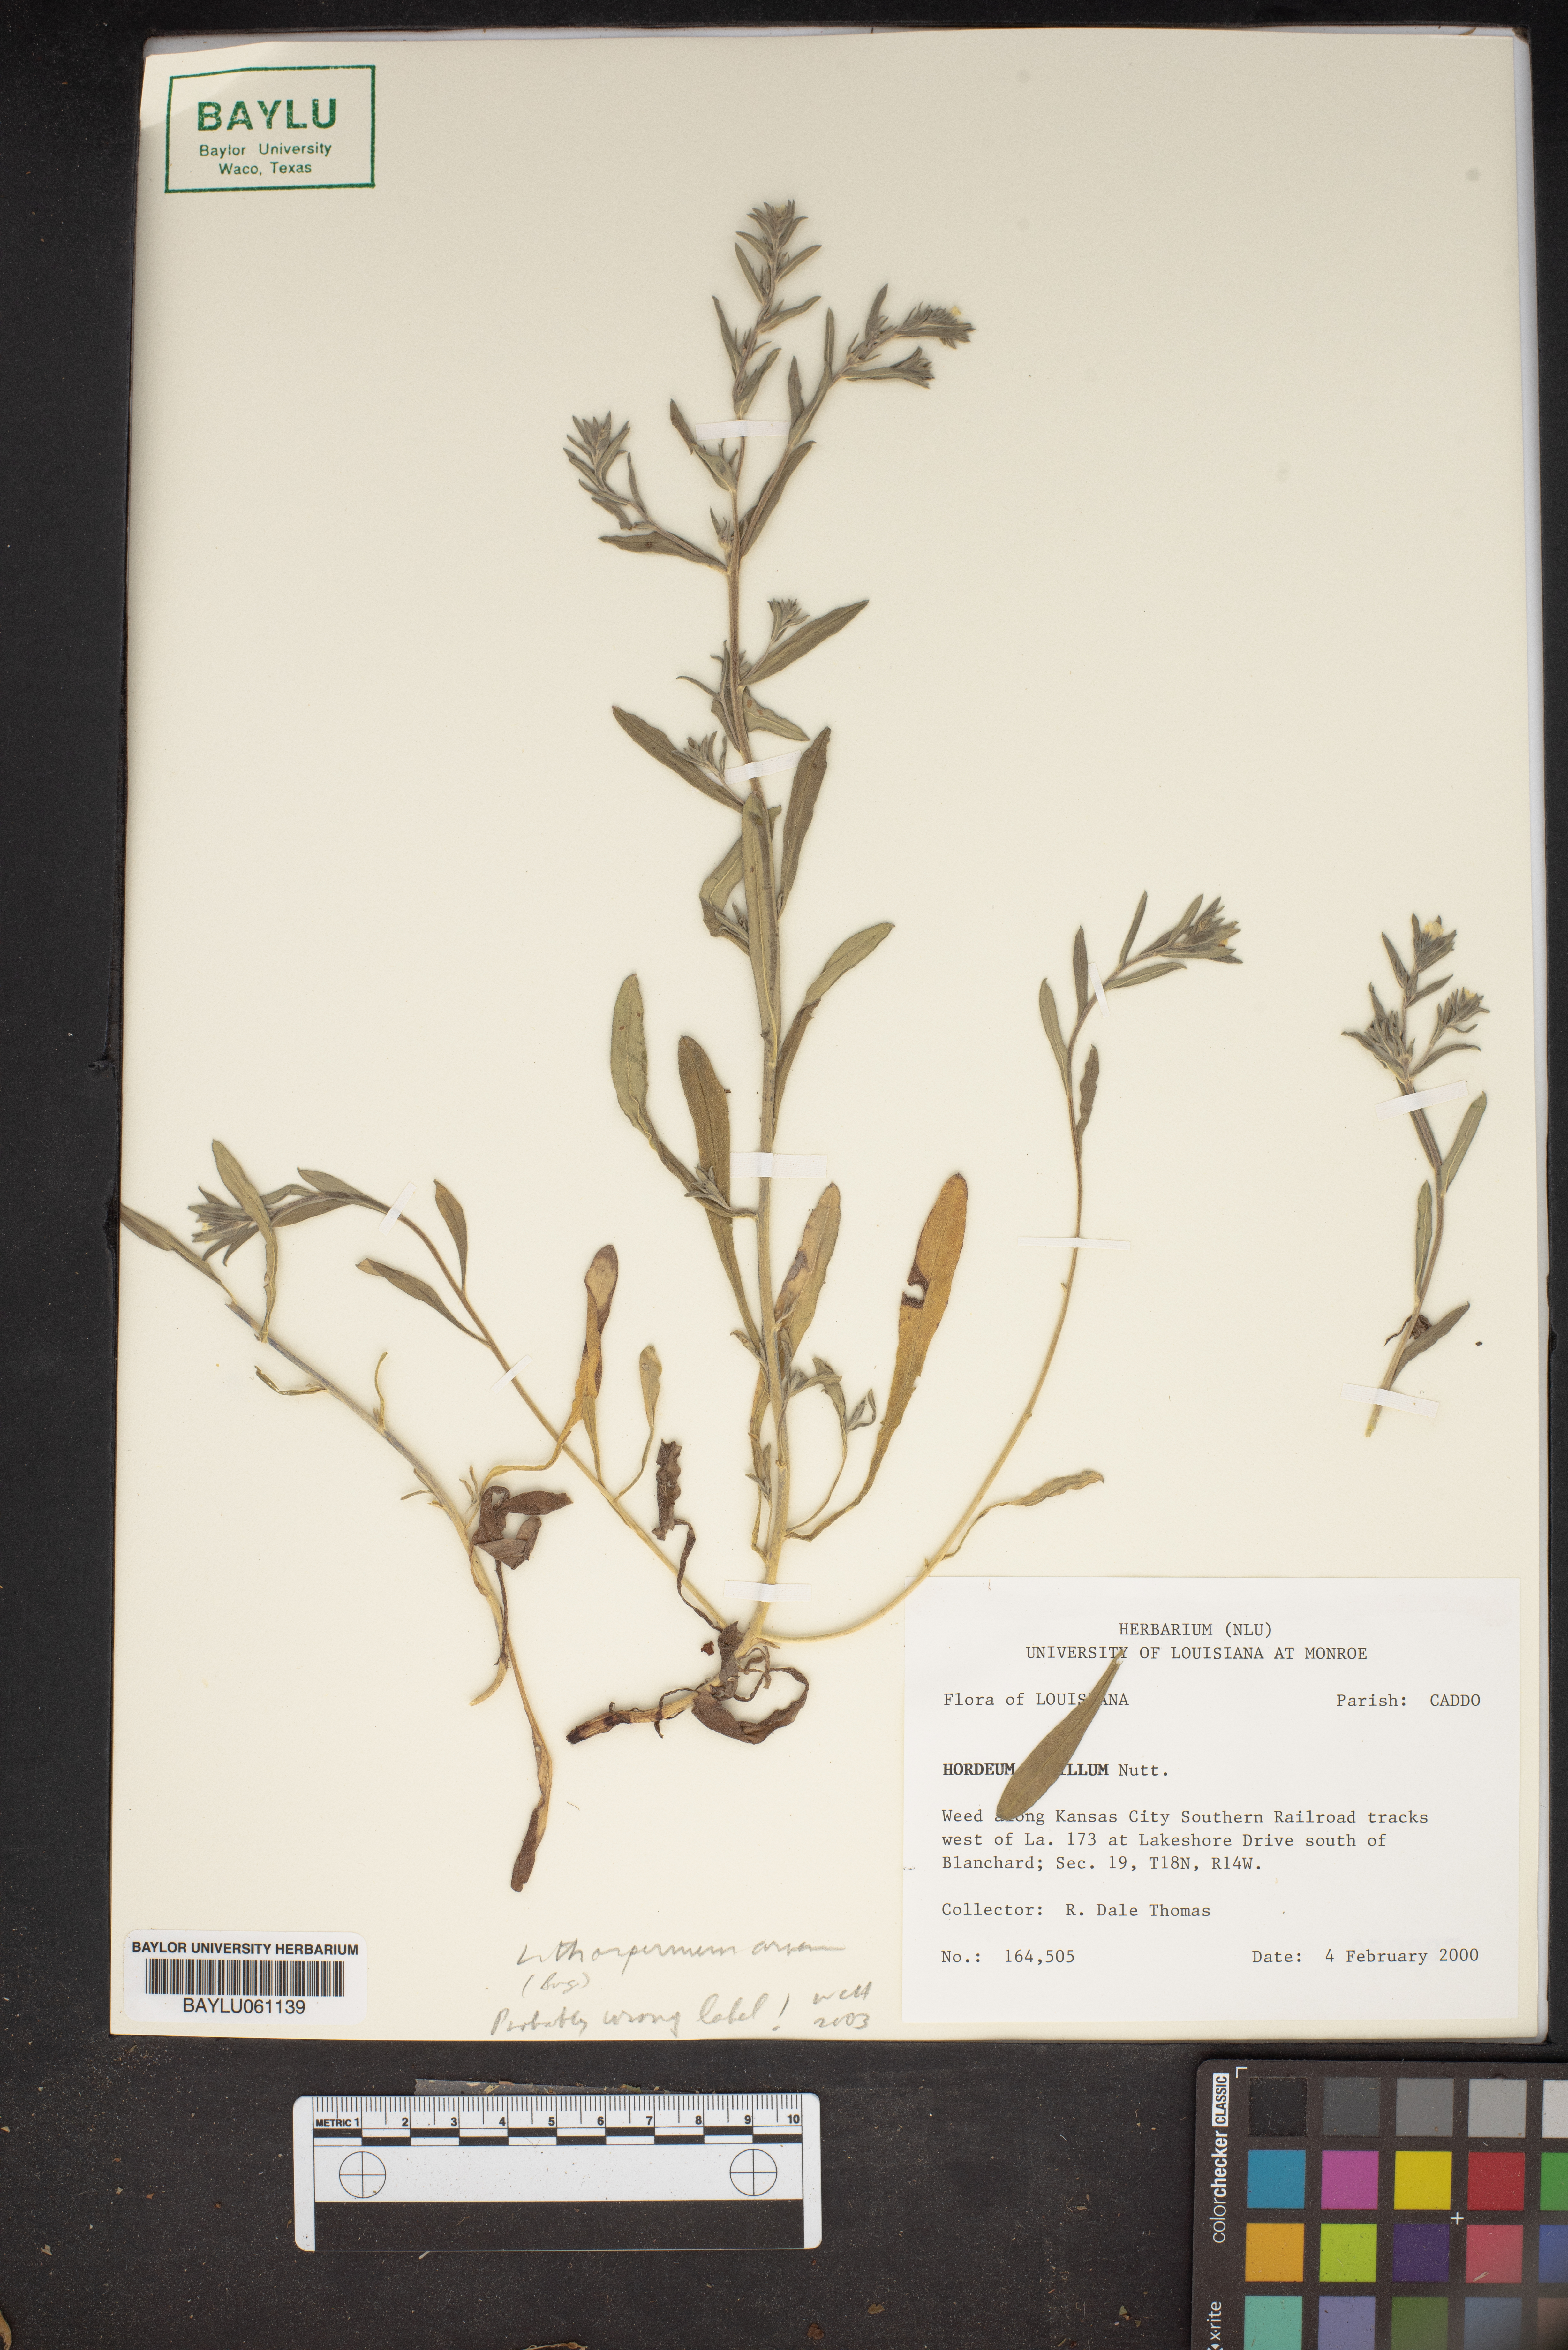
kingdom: Plantae
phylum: Tracheophyta
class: Liliopsida
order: Poales
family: Poaceae
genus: Hordeum
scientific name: Hordeum
